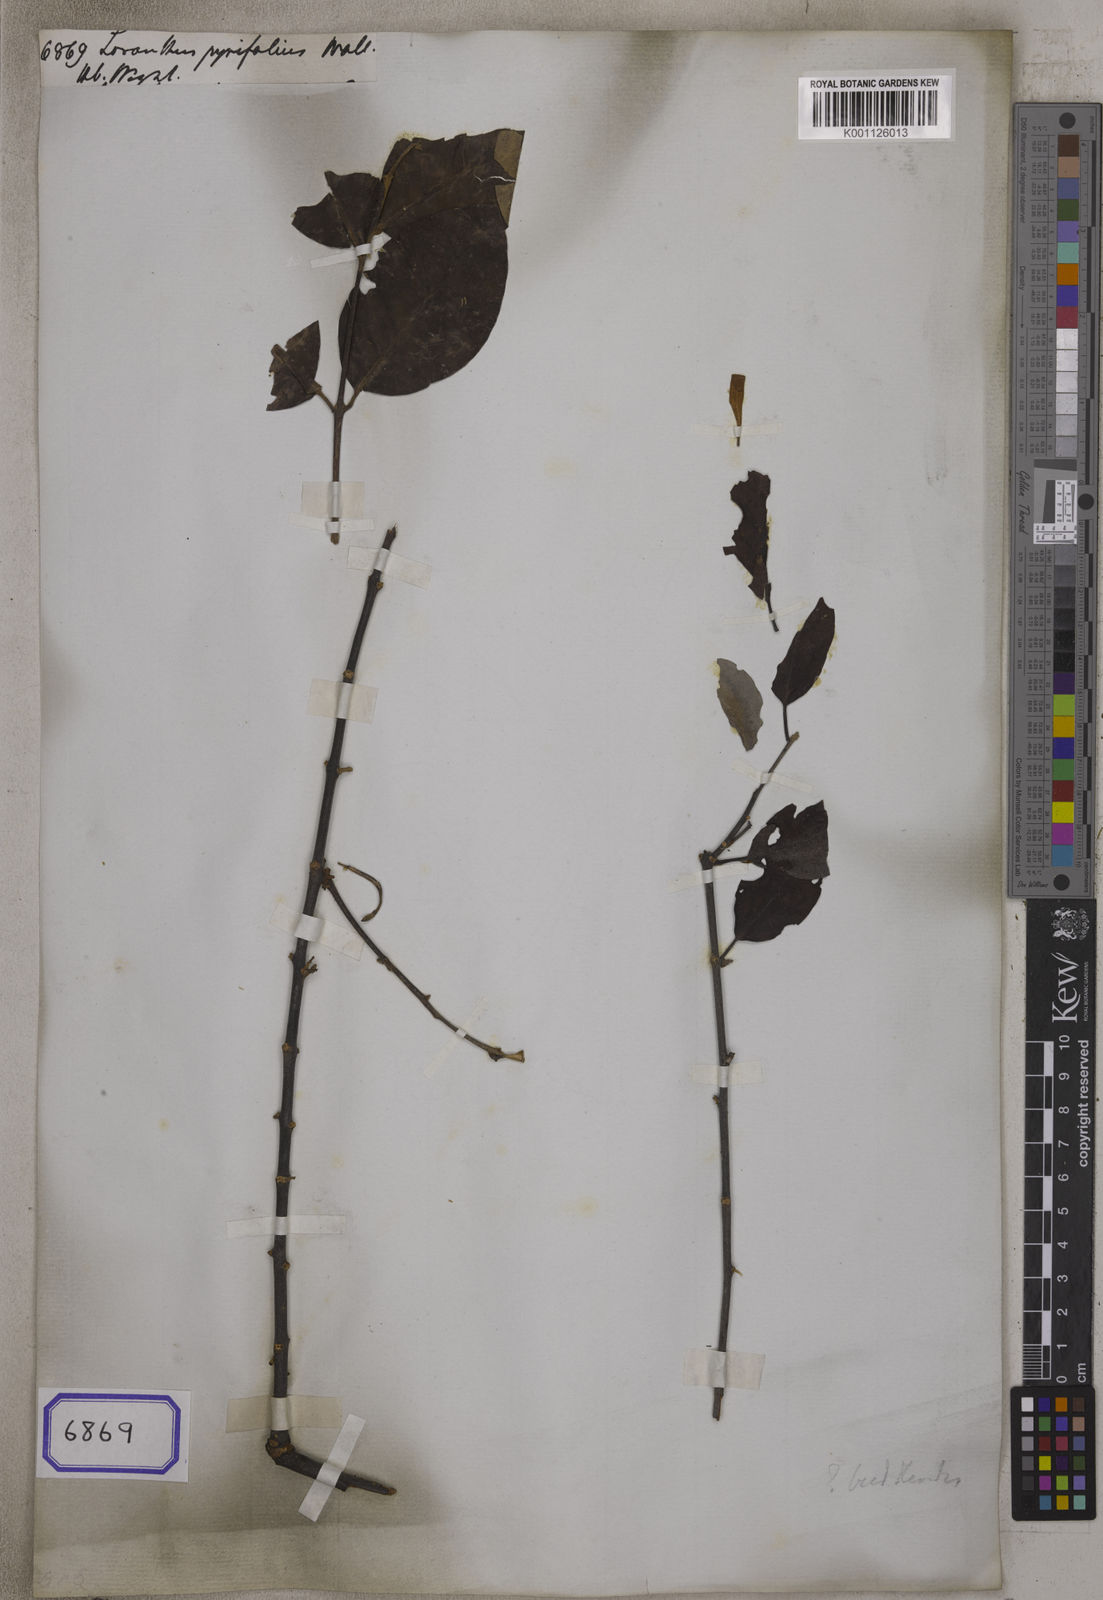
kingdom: Plantae
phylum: Tracheophyta
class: Magnoliopsida
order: Santalales
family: Loranthaceae
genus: Loranthus
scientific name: Loranthus
